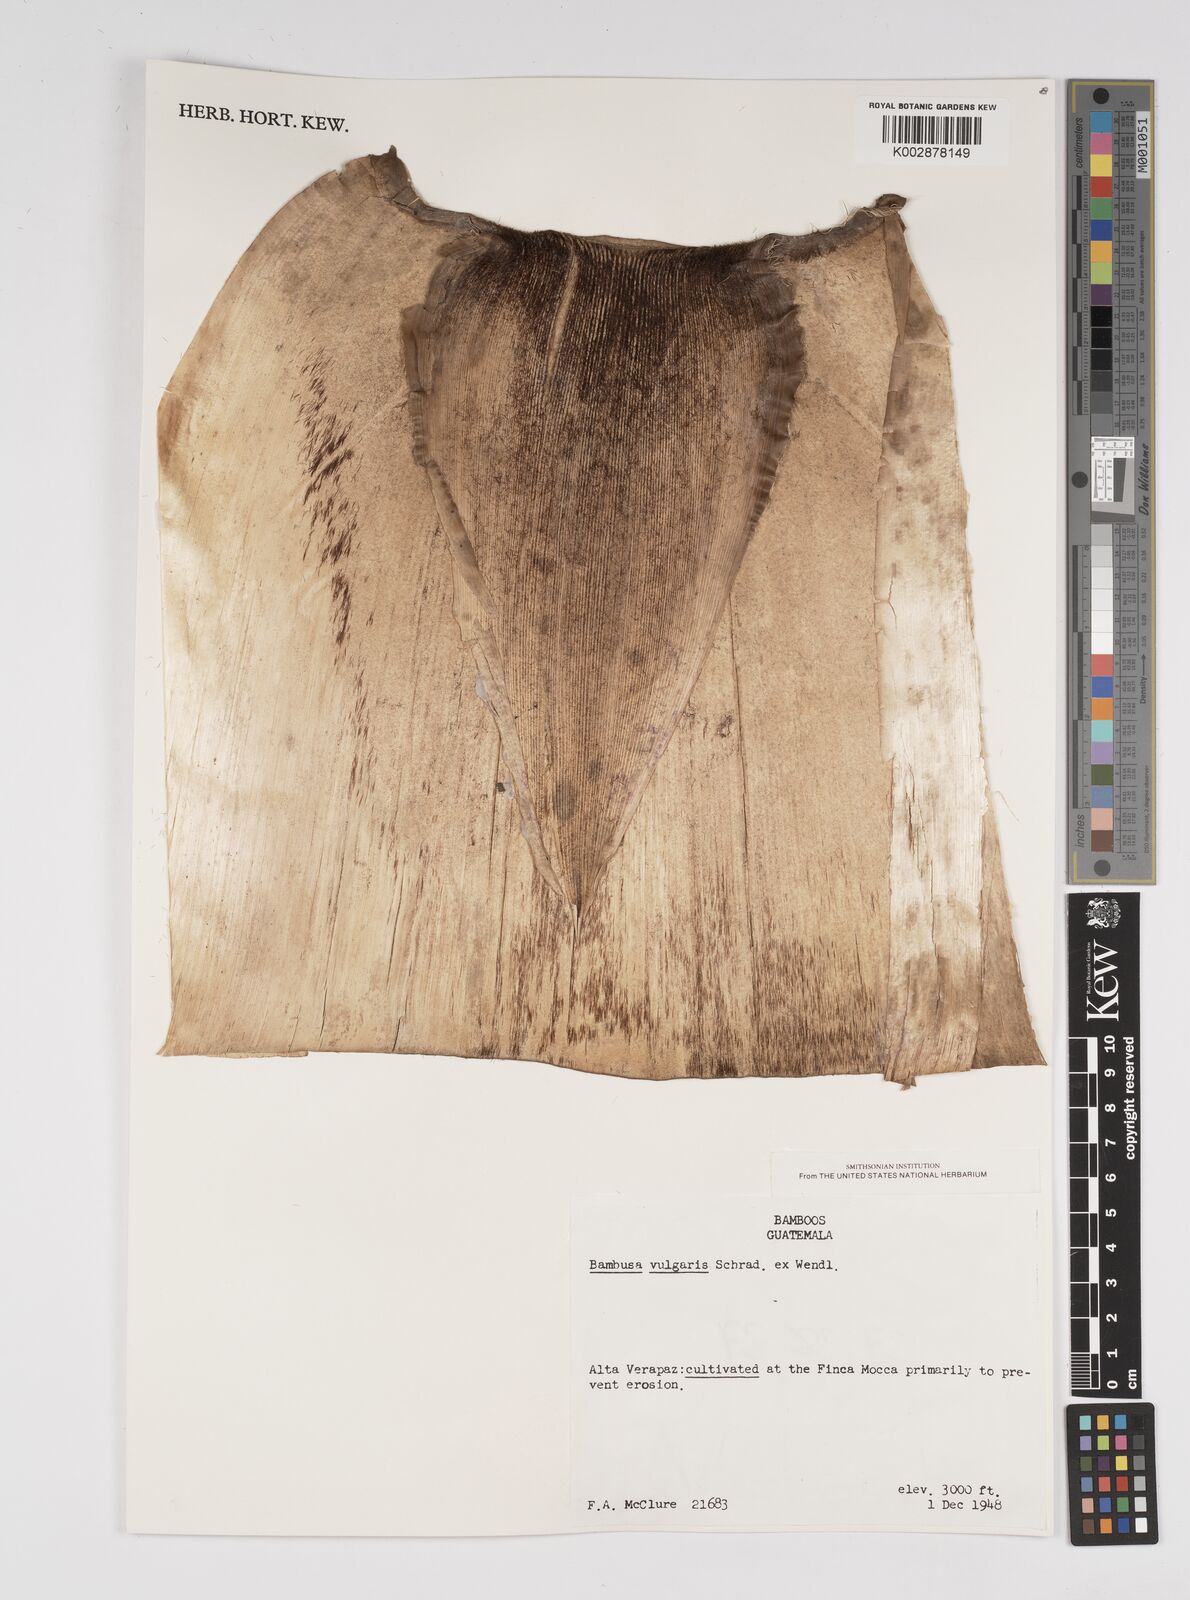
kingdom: Plantae
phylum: Tracheophyta
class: Liliopsida
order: Poales
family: Poaceae
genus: Bambusa
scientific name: Bambusa
